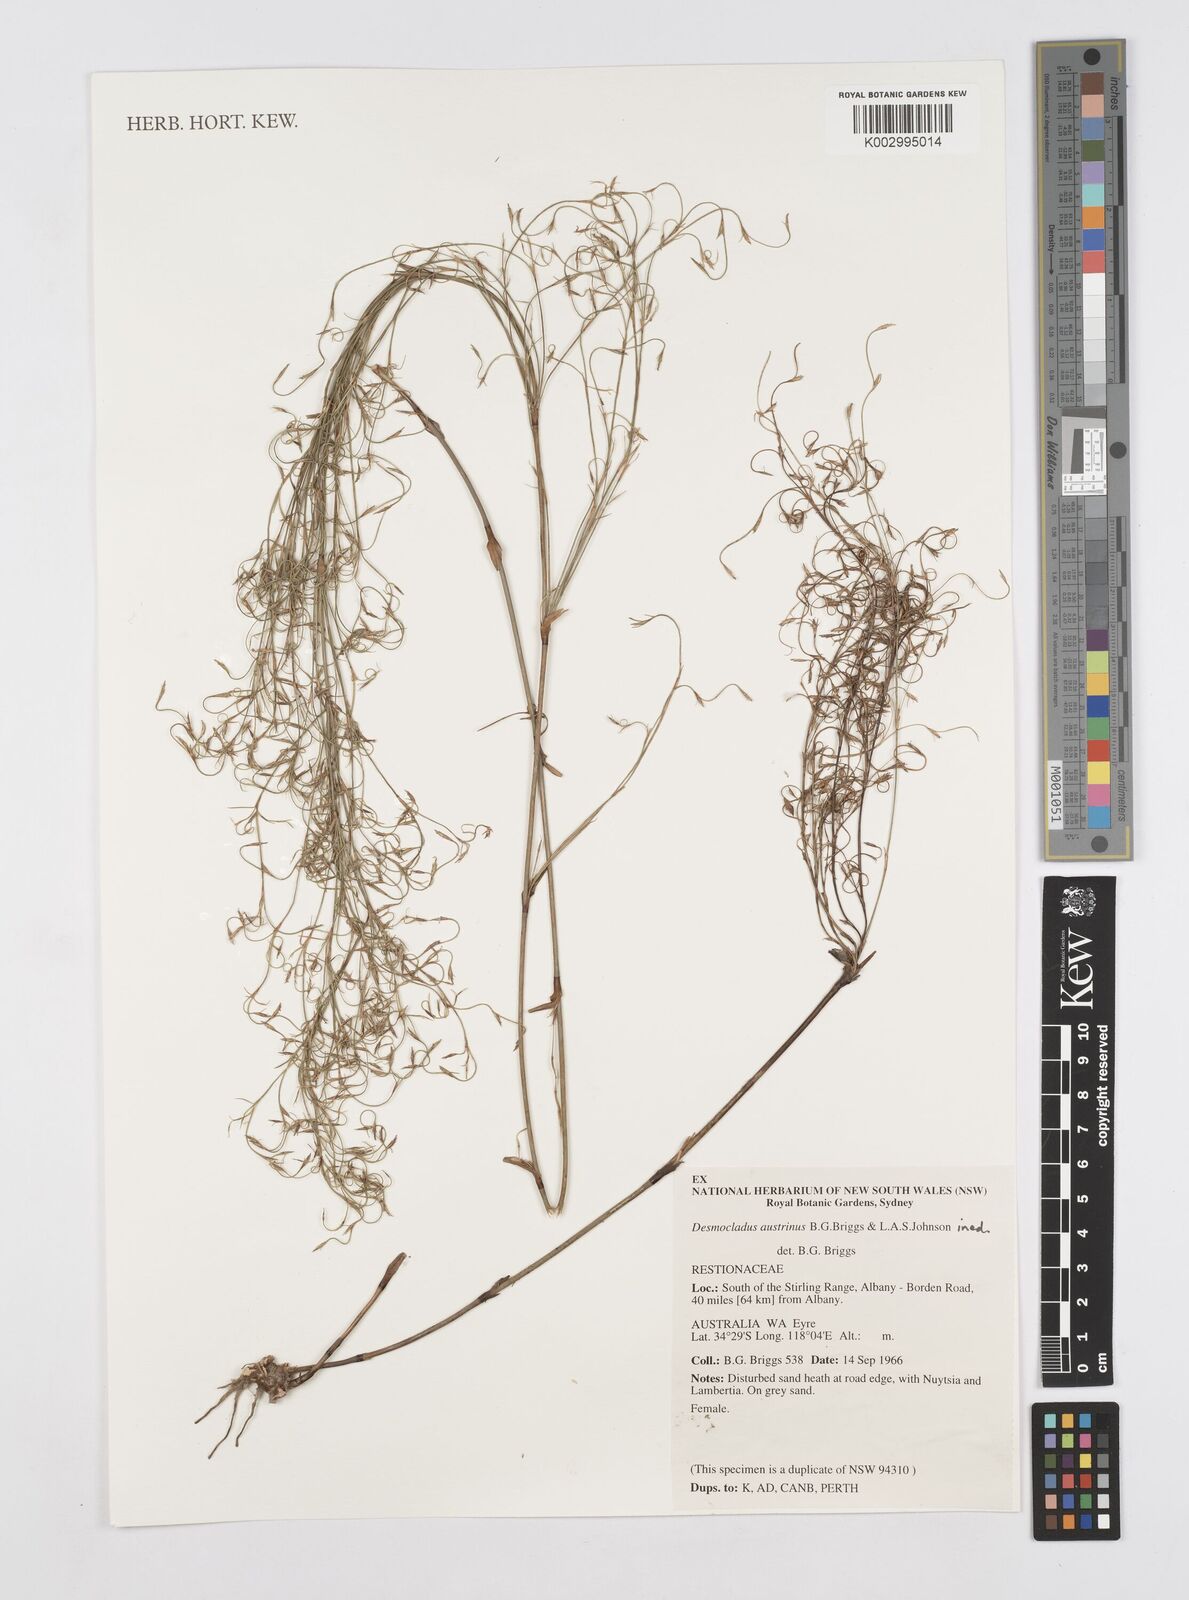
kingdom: Plantae
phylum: Tracheophyta
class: Liliopsida
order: Poales
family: Restionaceae
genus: Desmocladus
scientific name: Desmocladus austrinus
